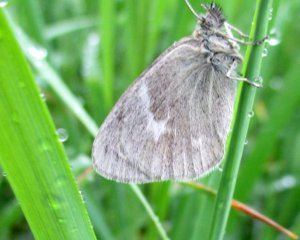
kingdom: Animalia
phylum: Arthropoda
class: Insecta
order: Lepidoptera
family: Nymphalidae
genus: Coenonympha
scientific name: Coenonympha tullia
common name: Large Heath
